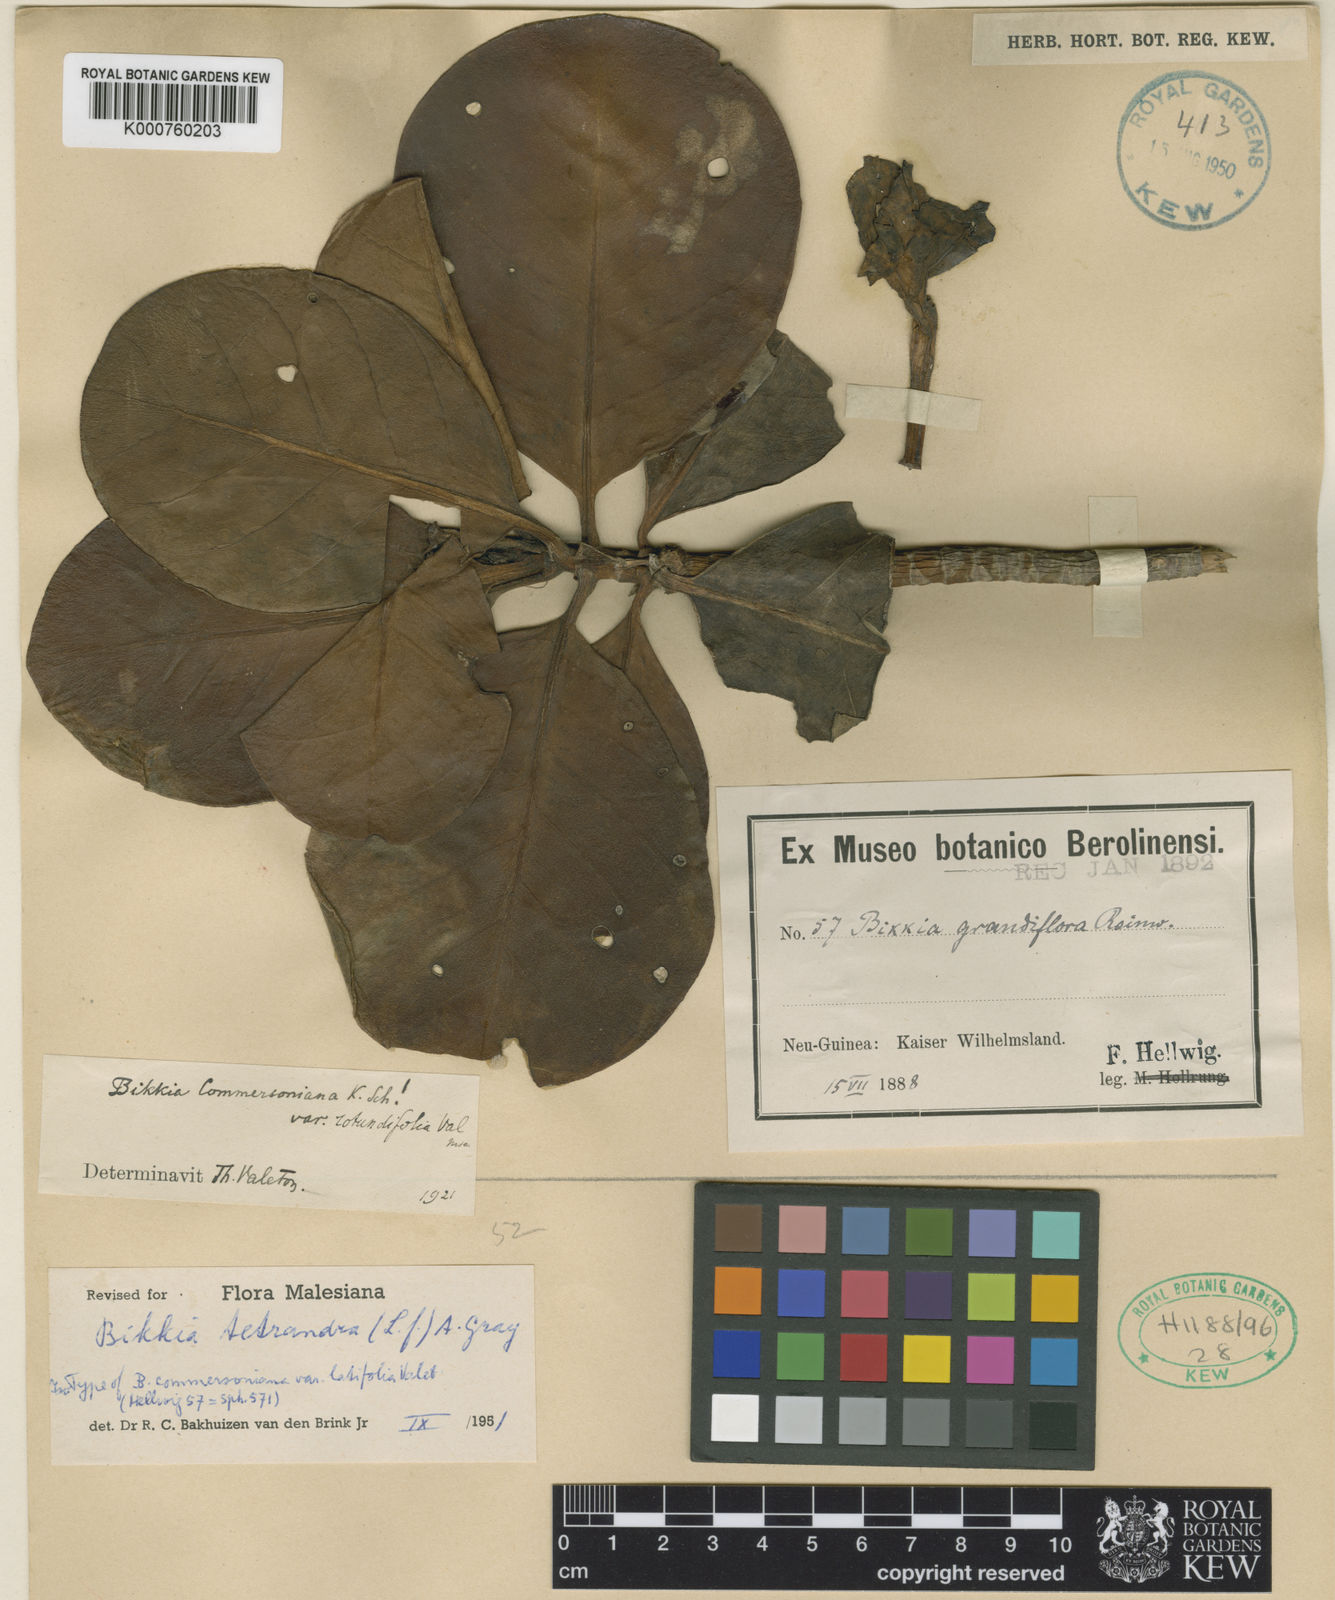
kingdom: Plantae
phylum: Tracheophyta
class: Magnoliopsida
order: Gentianales
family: Rubiaceae
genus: Bikkia
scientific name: Bikkia tetrandra
